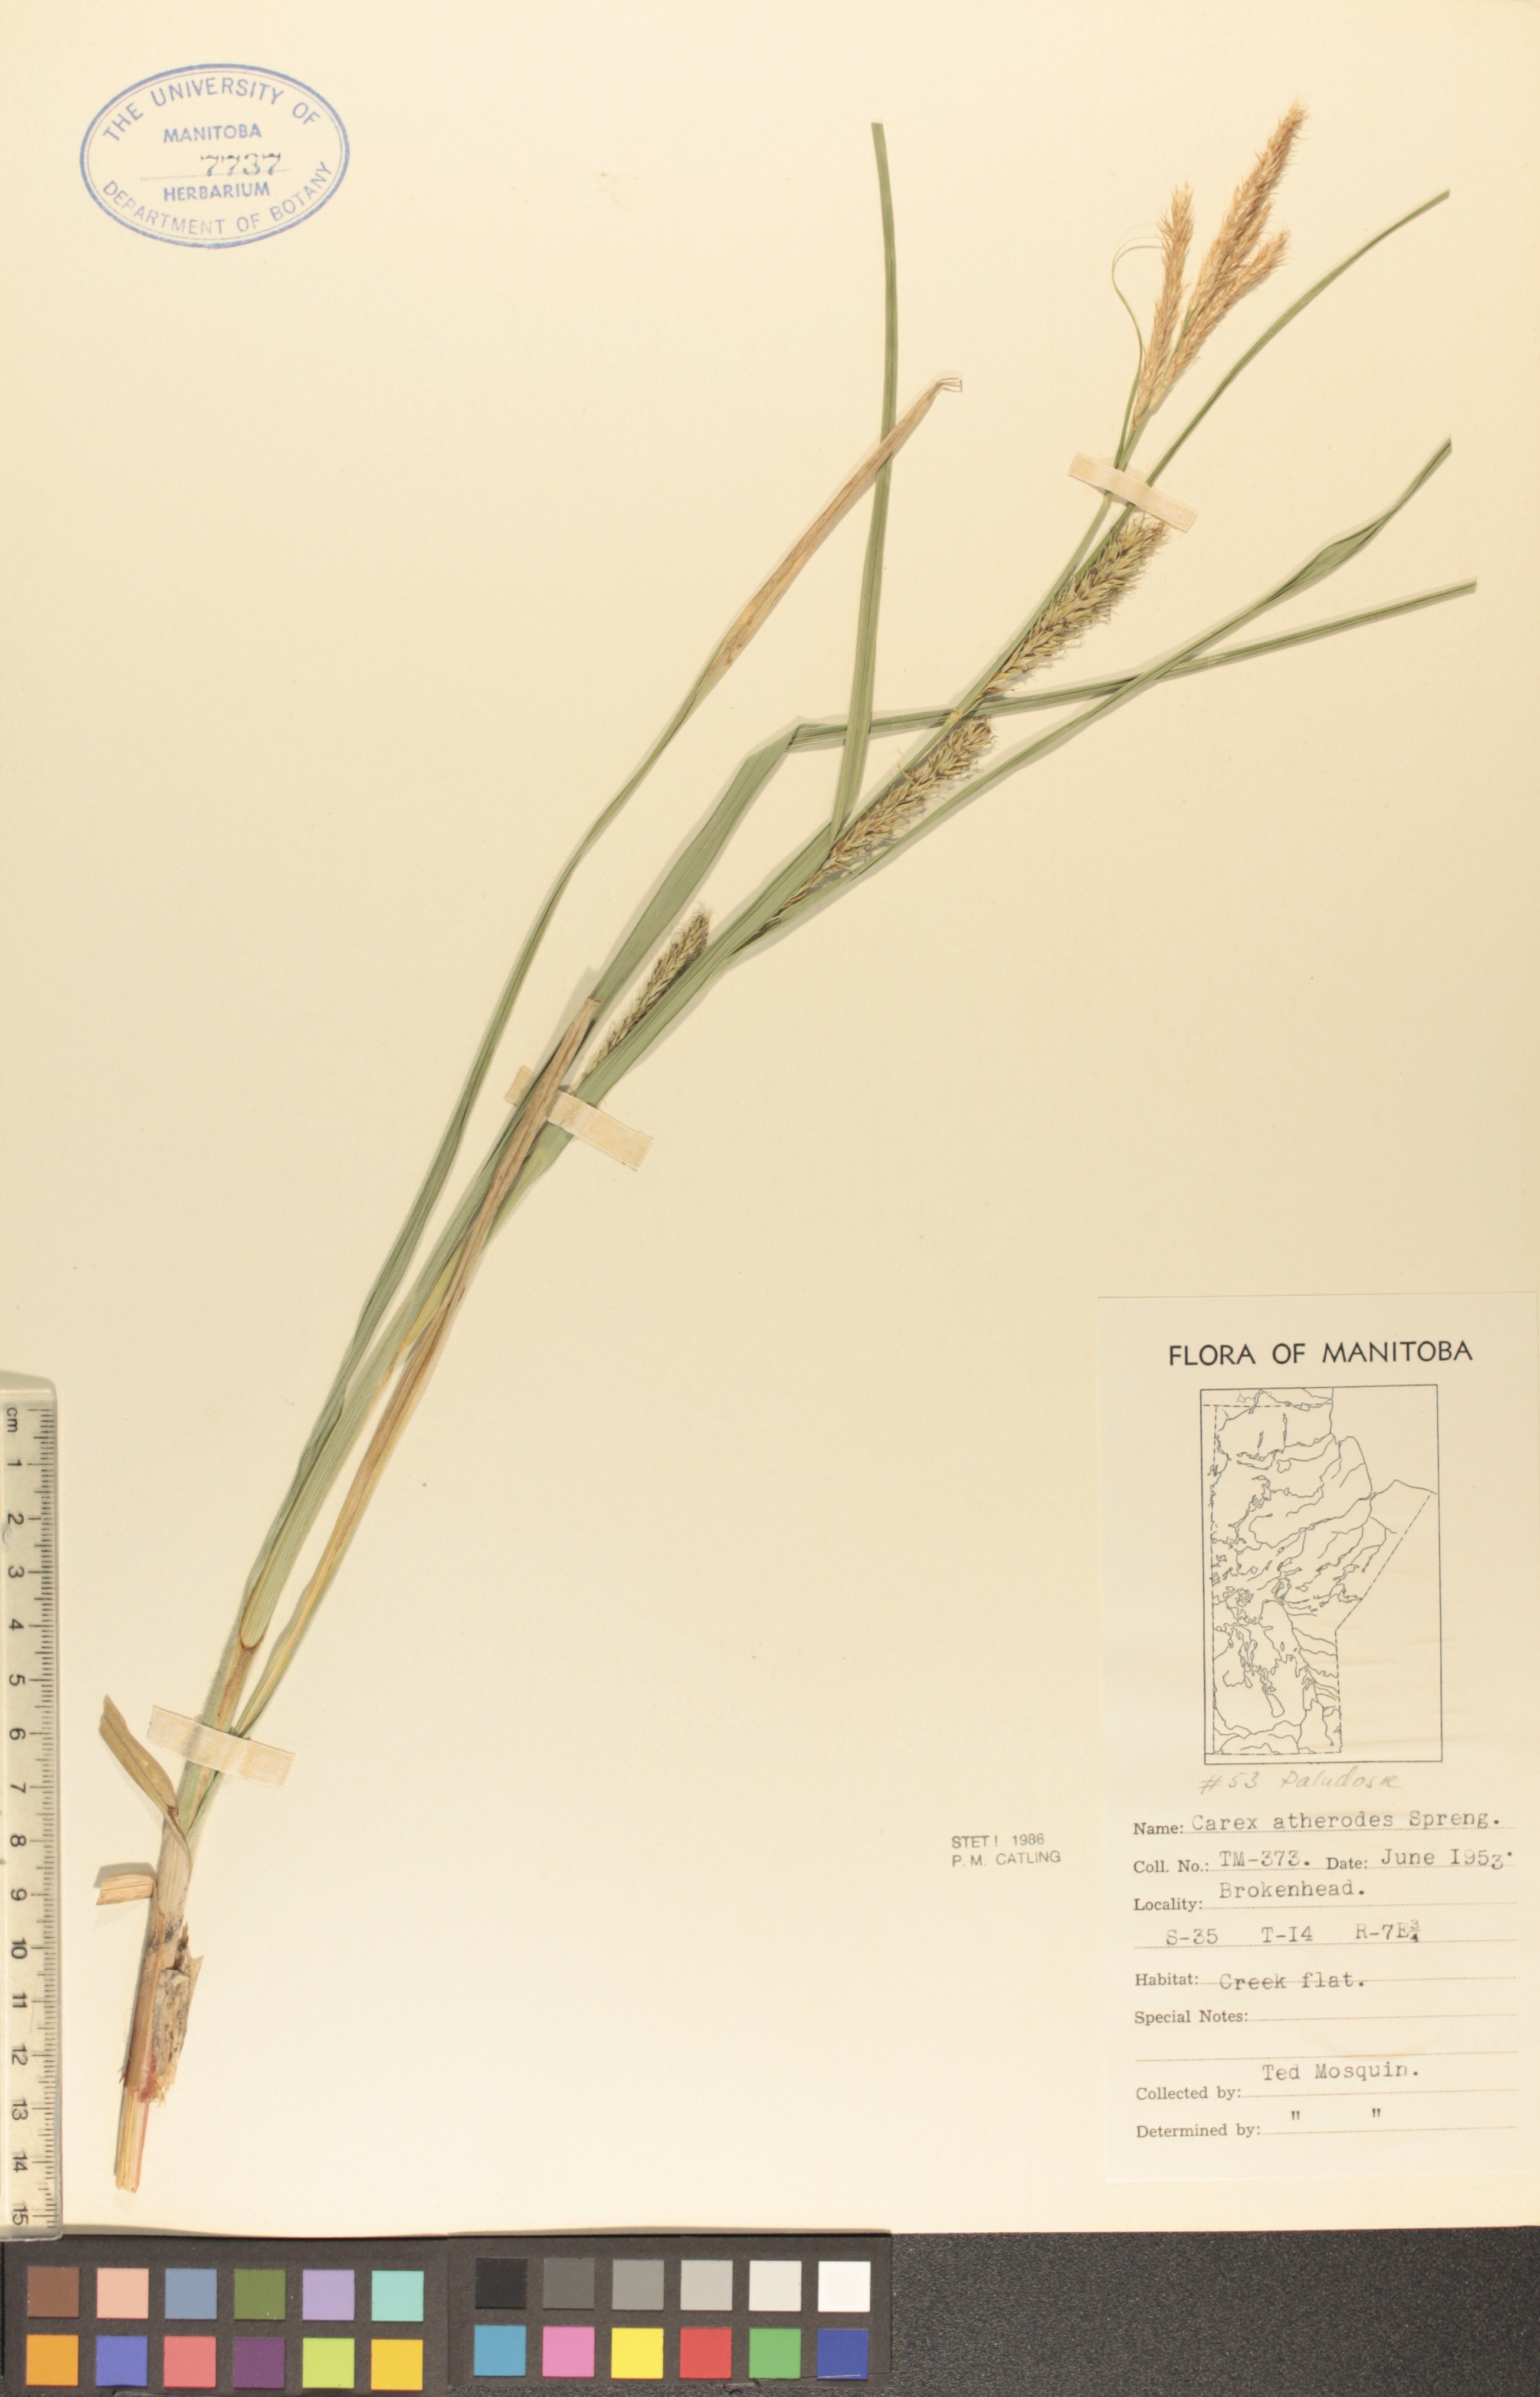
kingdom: Plantae
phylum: Tracheophyta
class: Liliopsida
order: Poales
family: Cyperaceae
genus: Carex
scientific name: Carex atherodes
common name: Wheat sedge
